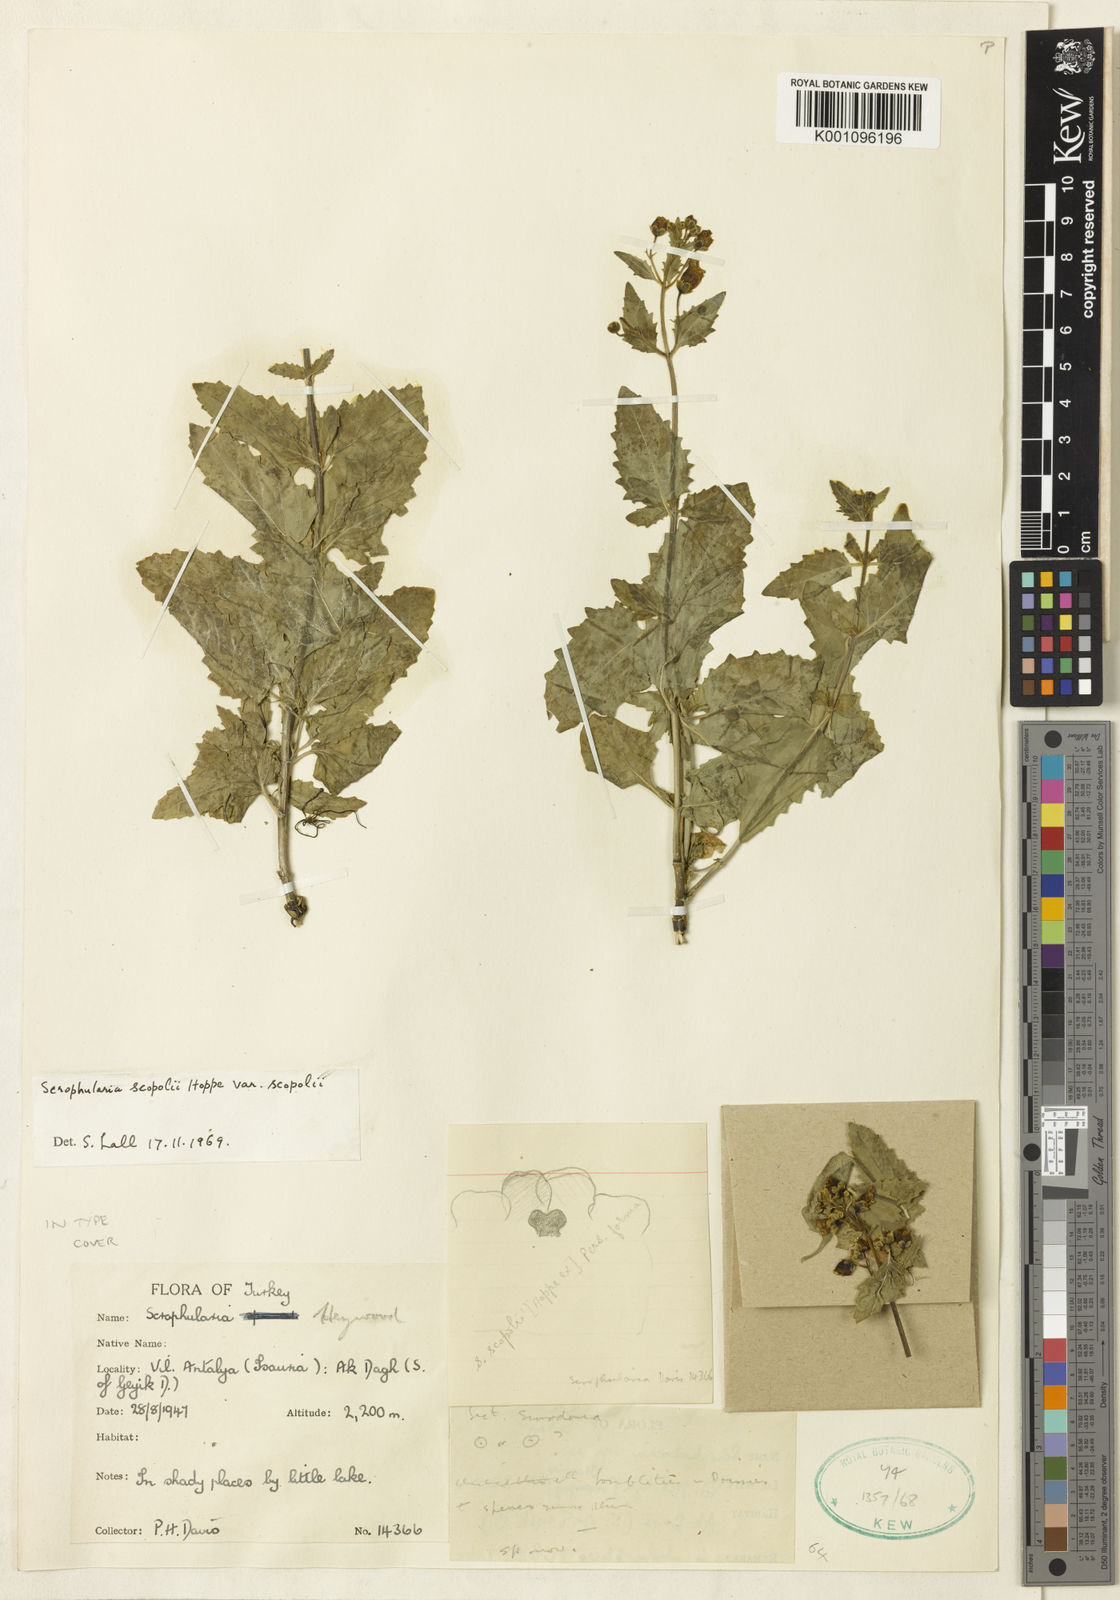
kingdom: Plantae
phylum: Tracheophyta
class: Magnoliopsida
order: Lamiales
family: Scrophulariaceae
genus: Scrophularia
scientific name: Scrophularia scopolii
